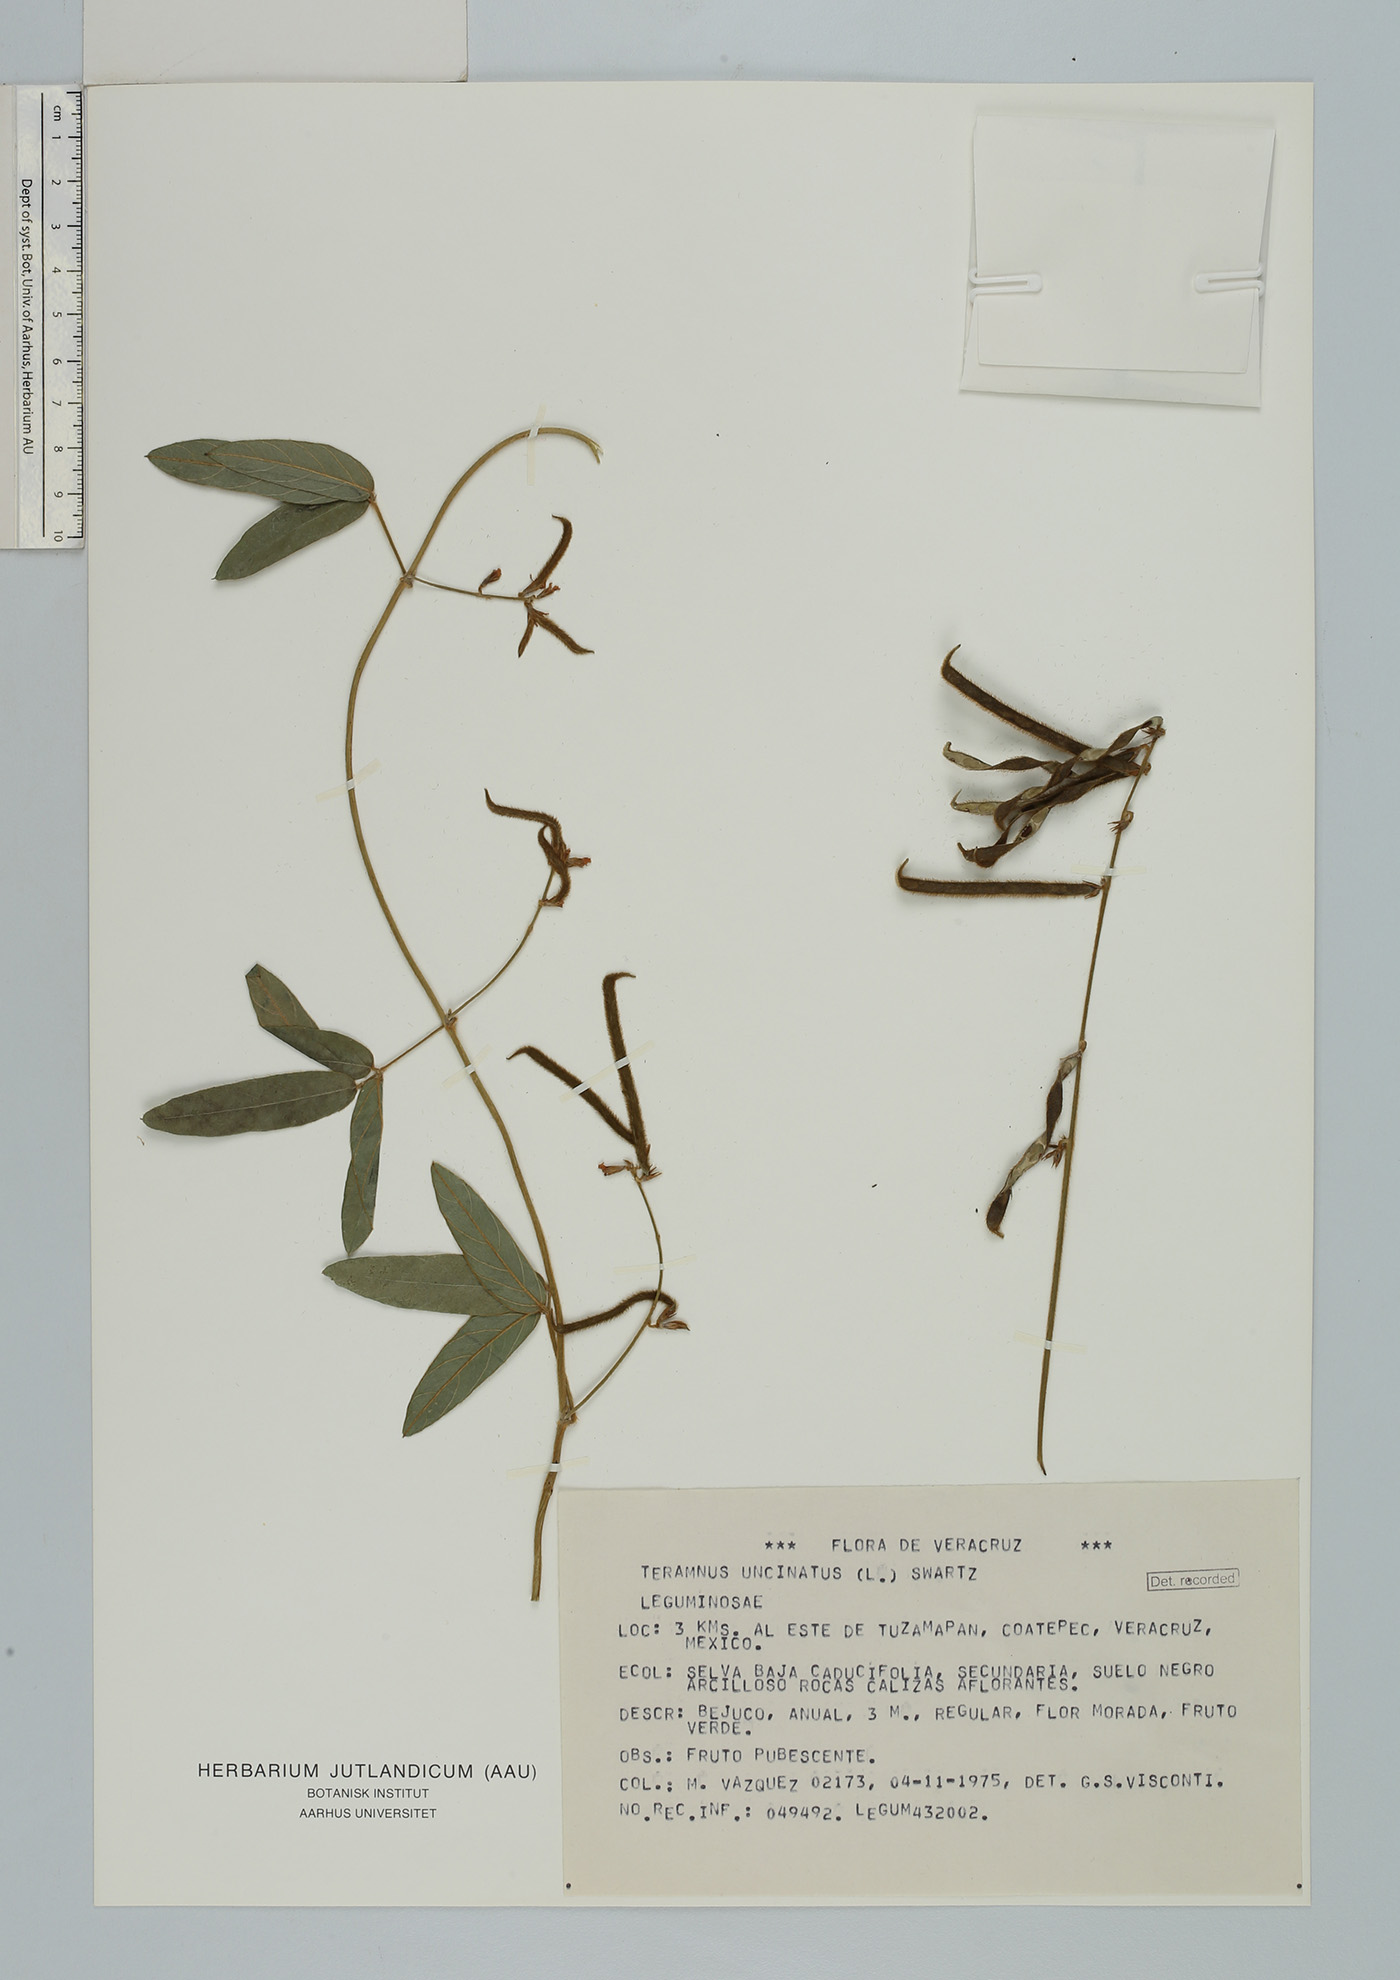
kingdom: Plantae
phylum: Tracheophyta
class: Magnoliopsida
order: Fabales
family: Fabaceae
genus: Teramnus
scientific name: Teramnus uncinatus
